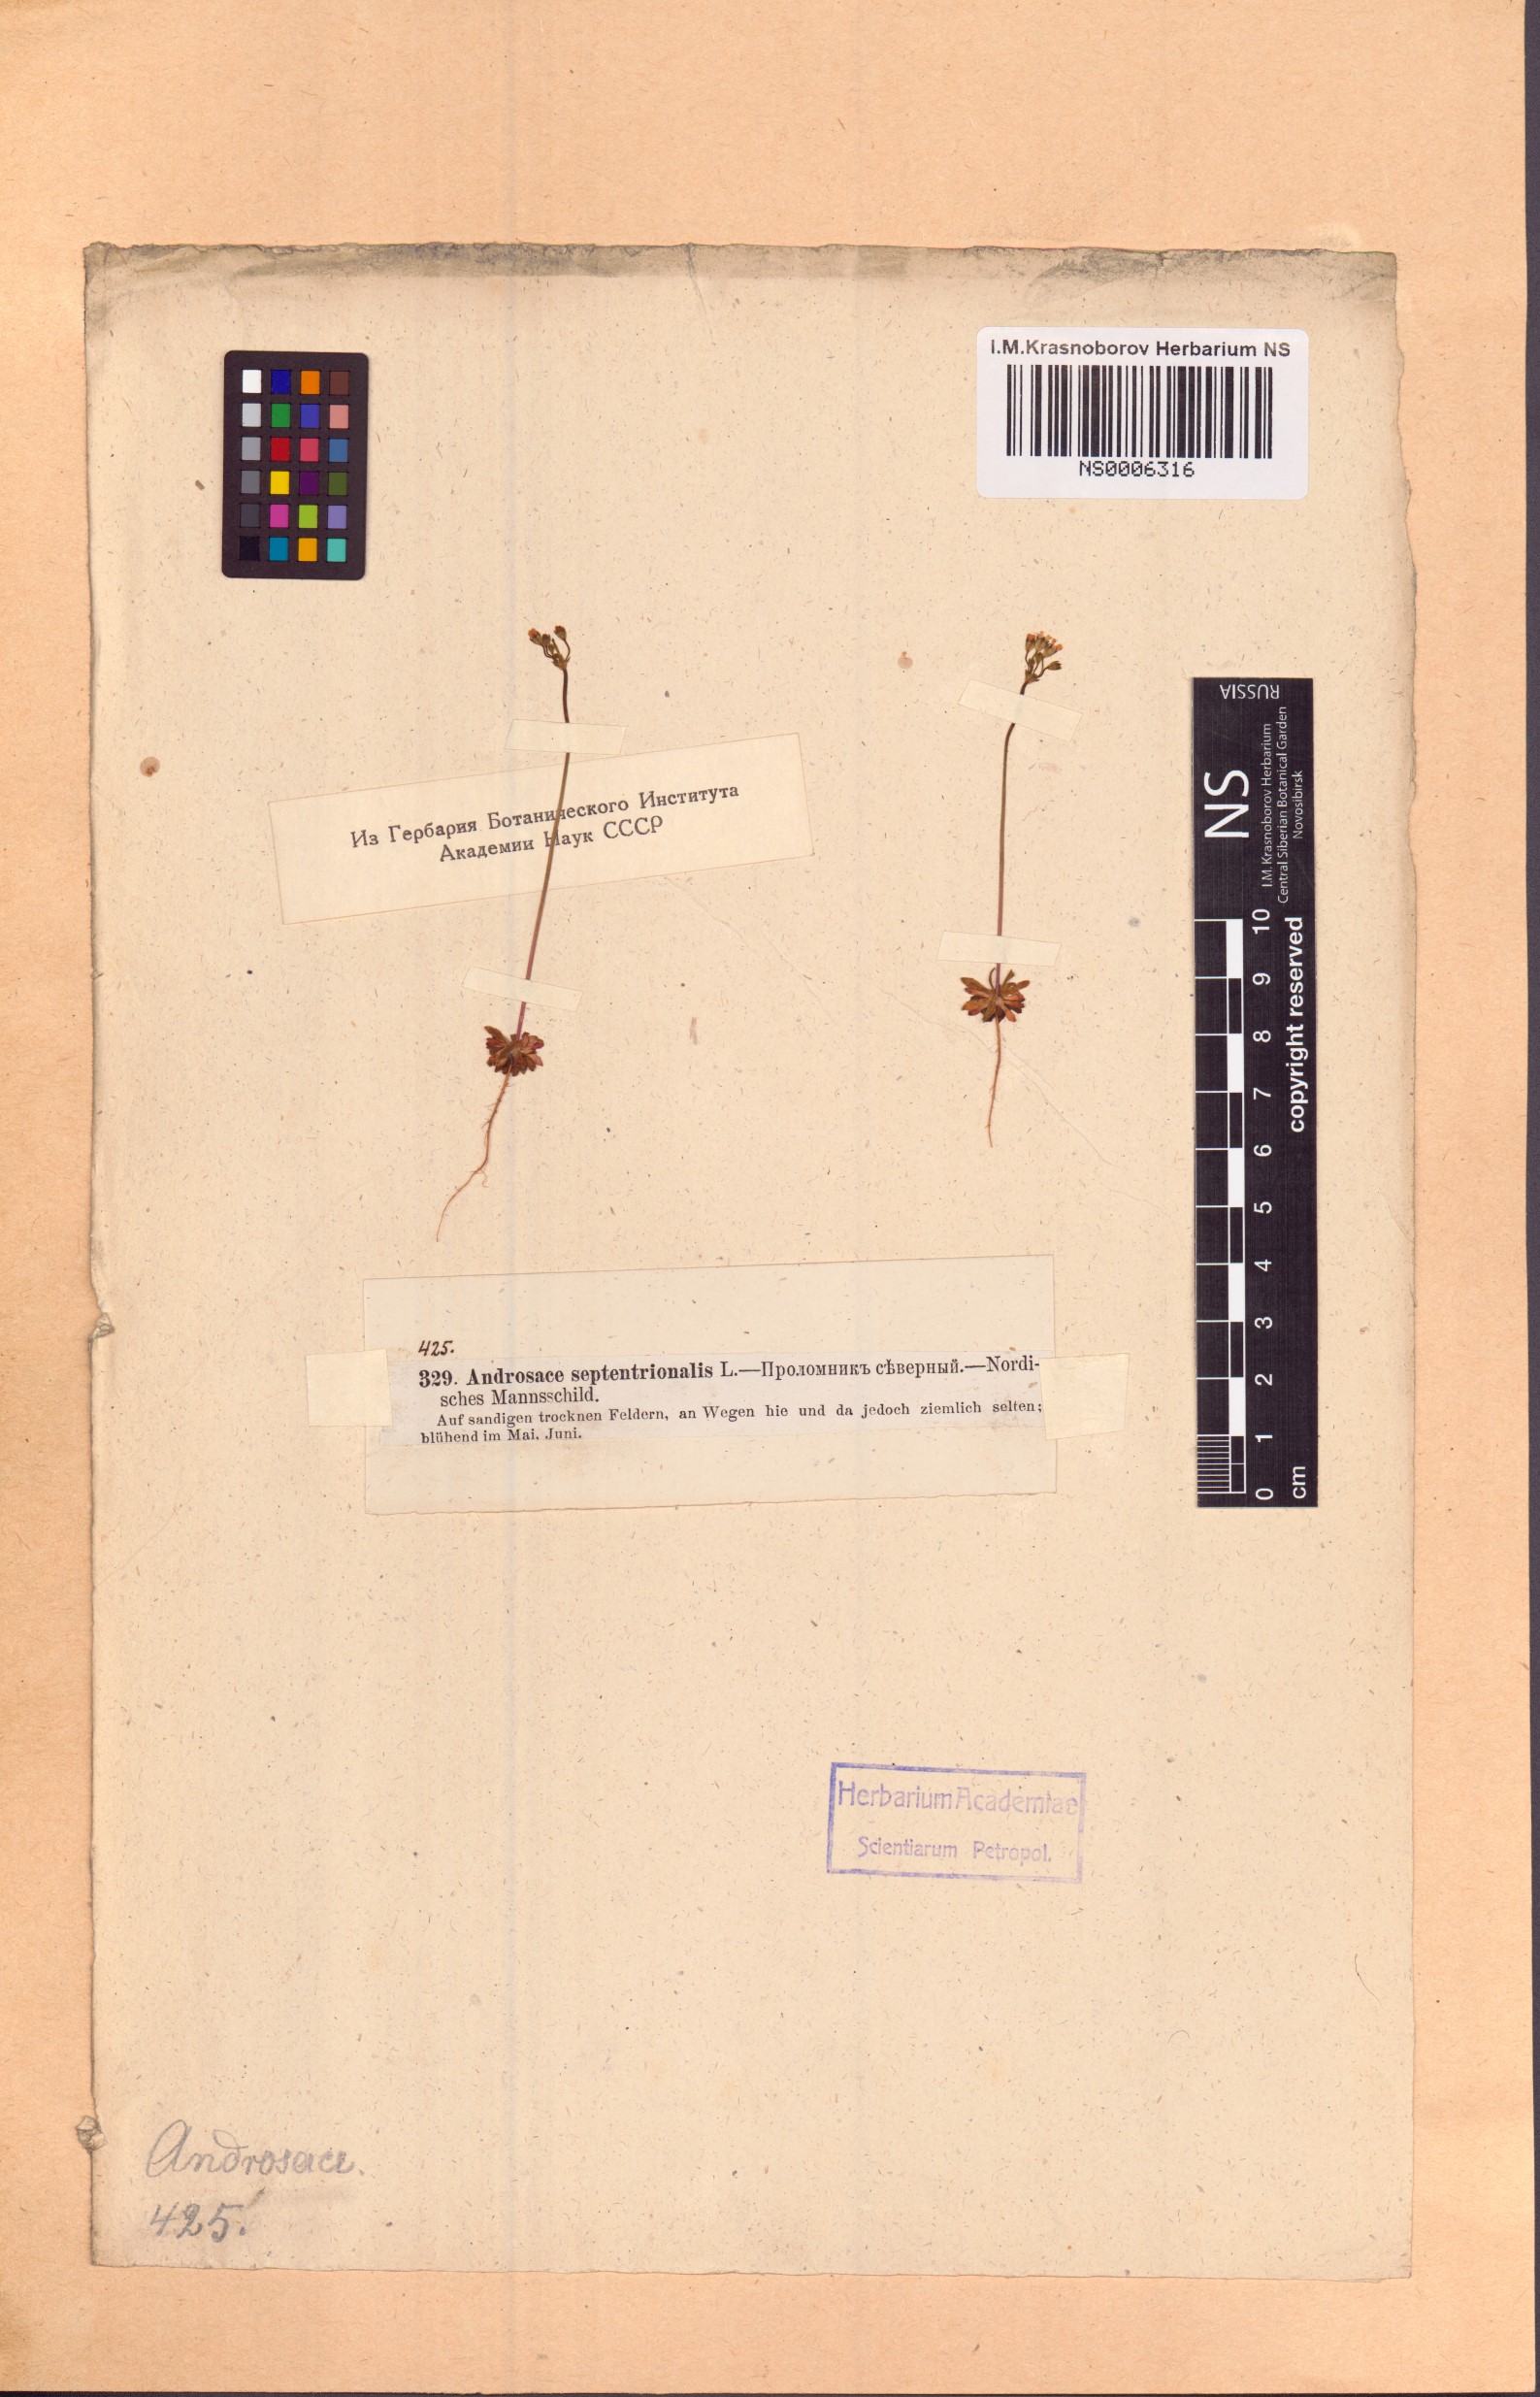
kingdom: Plantae
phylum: Tracheophyta
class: Magnoliopsida
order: Ericales
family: Primulaceae
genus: Androsace
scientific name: Androsace septentrionalis
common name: Hairy northern fairy-candelabra
